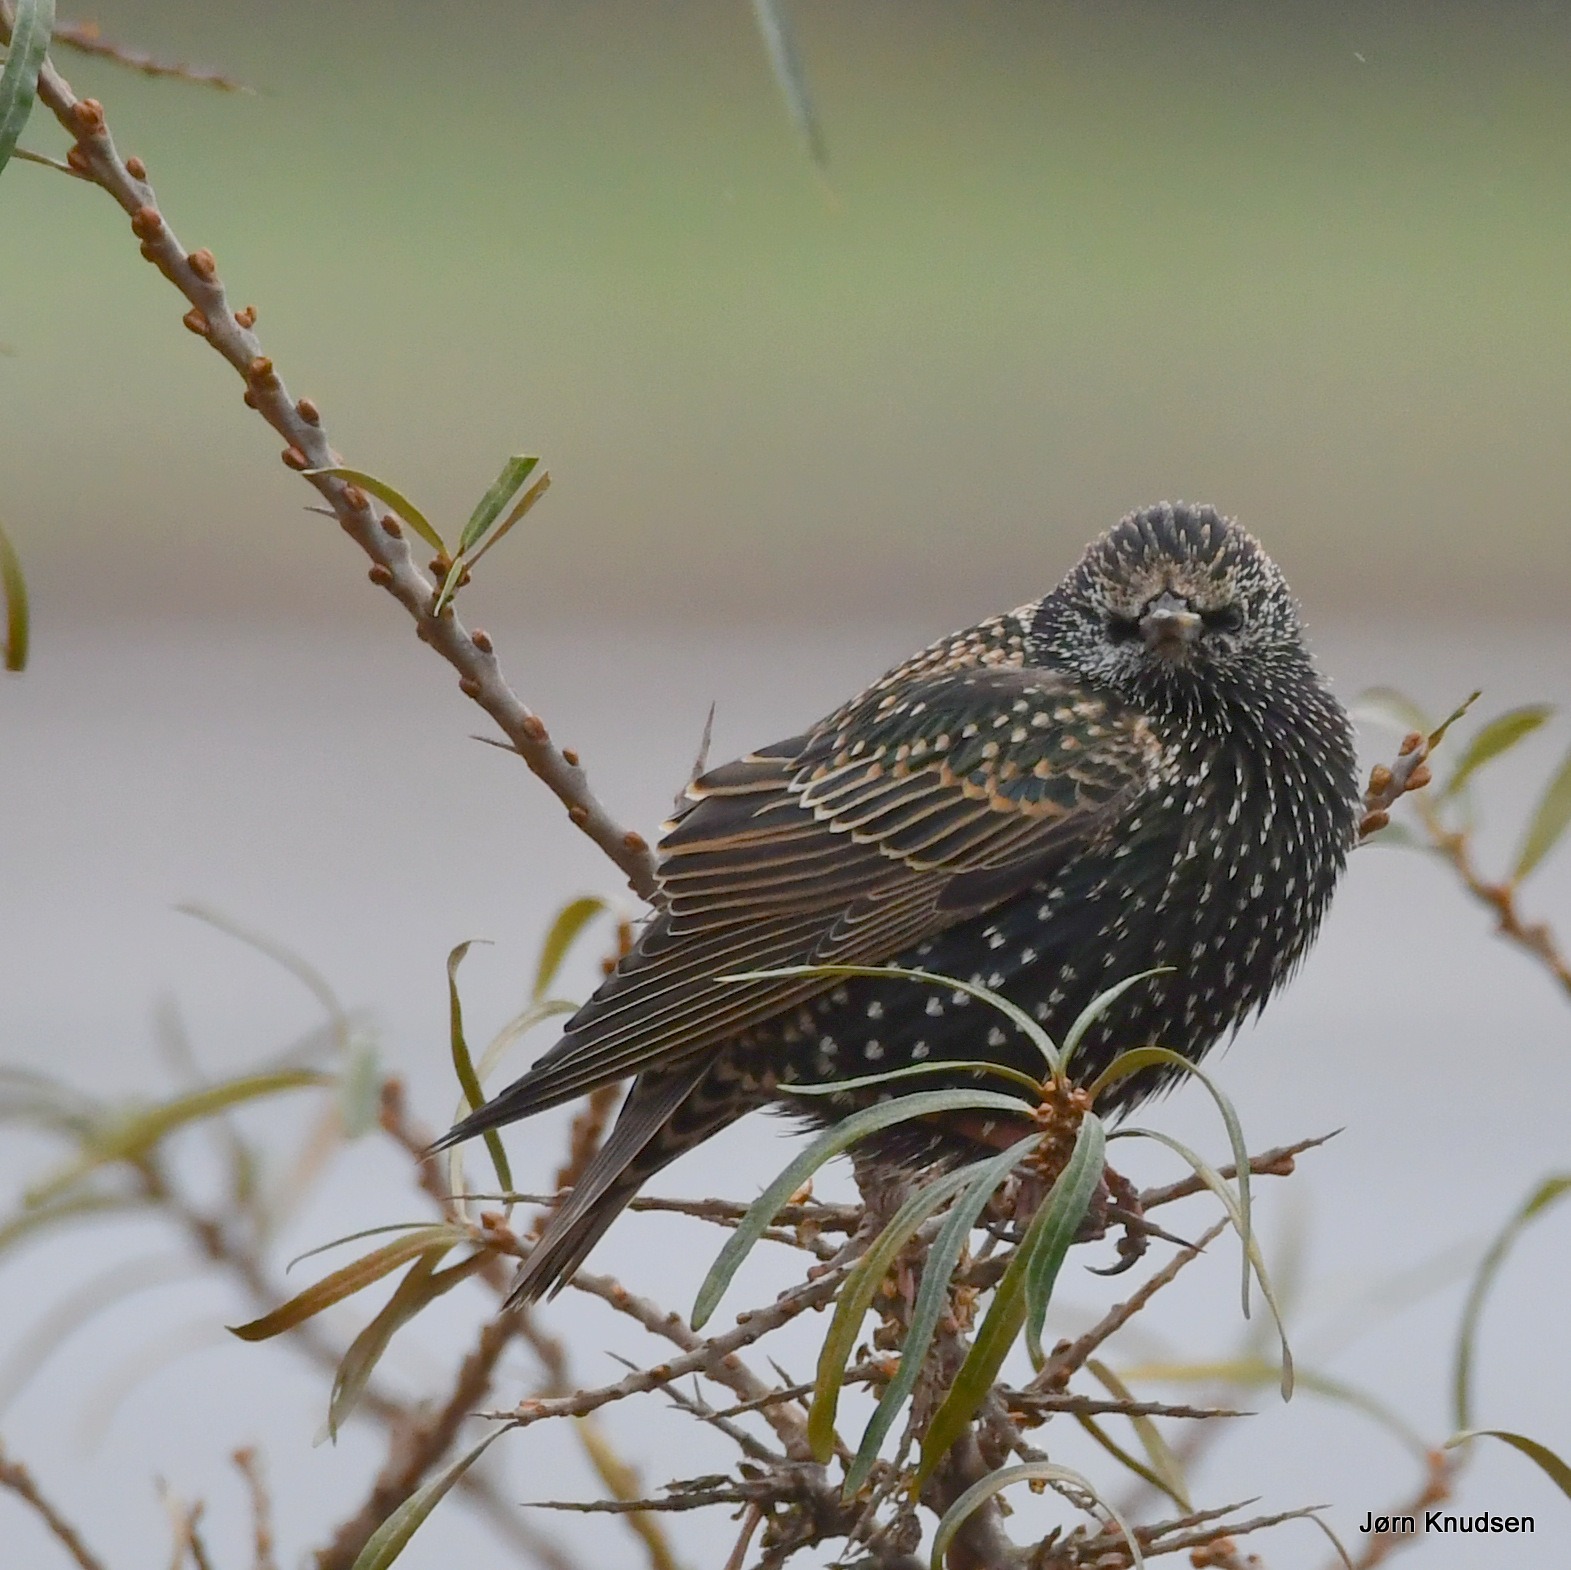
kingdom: Animalia
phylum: Chordata
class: Aves
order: Passeriformes
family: Sturnidae
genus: Sturnus
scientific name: Sturnus vulgaris
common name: Stær
